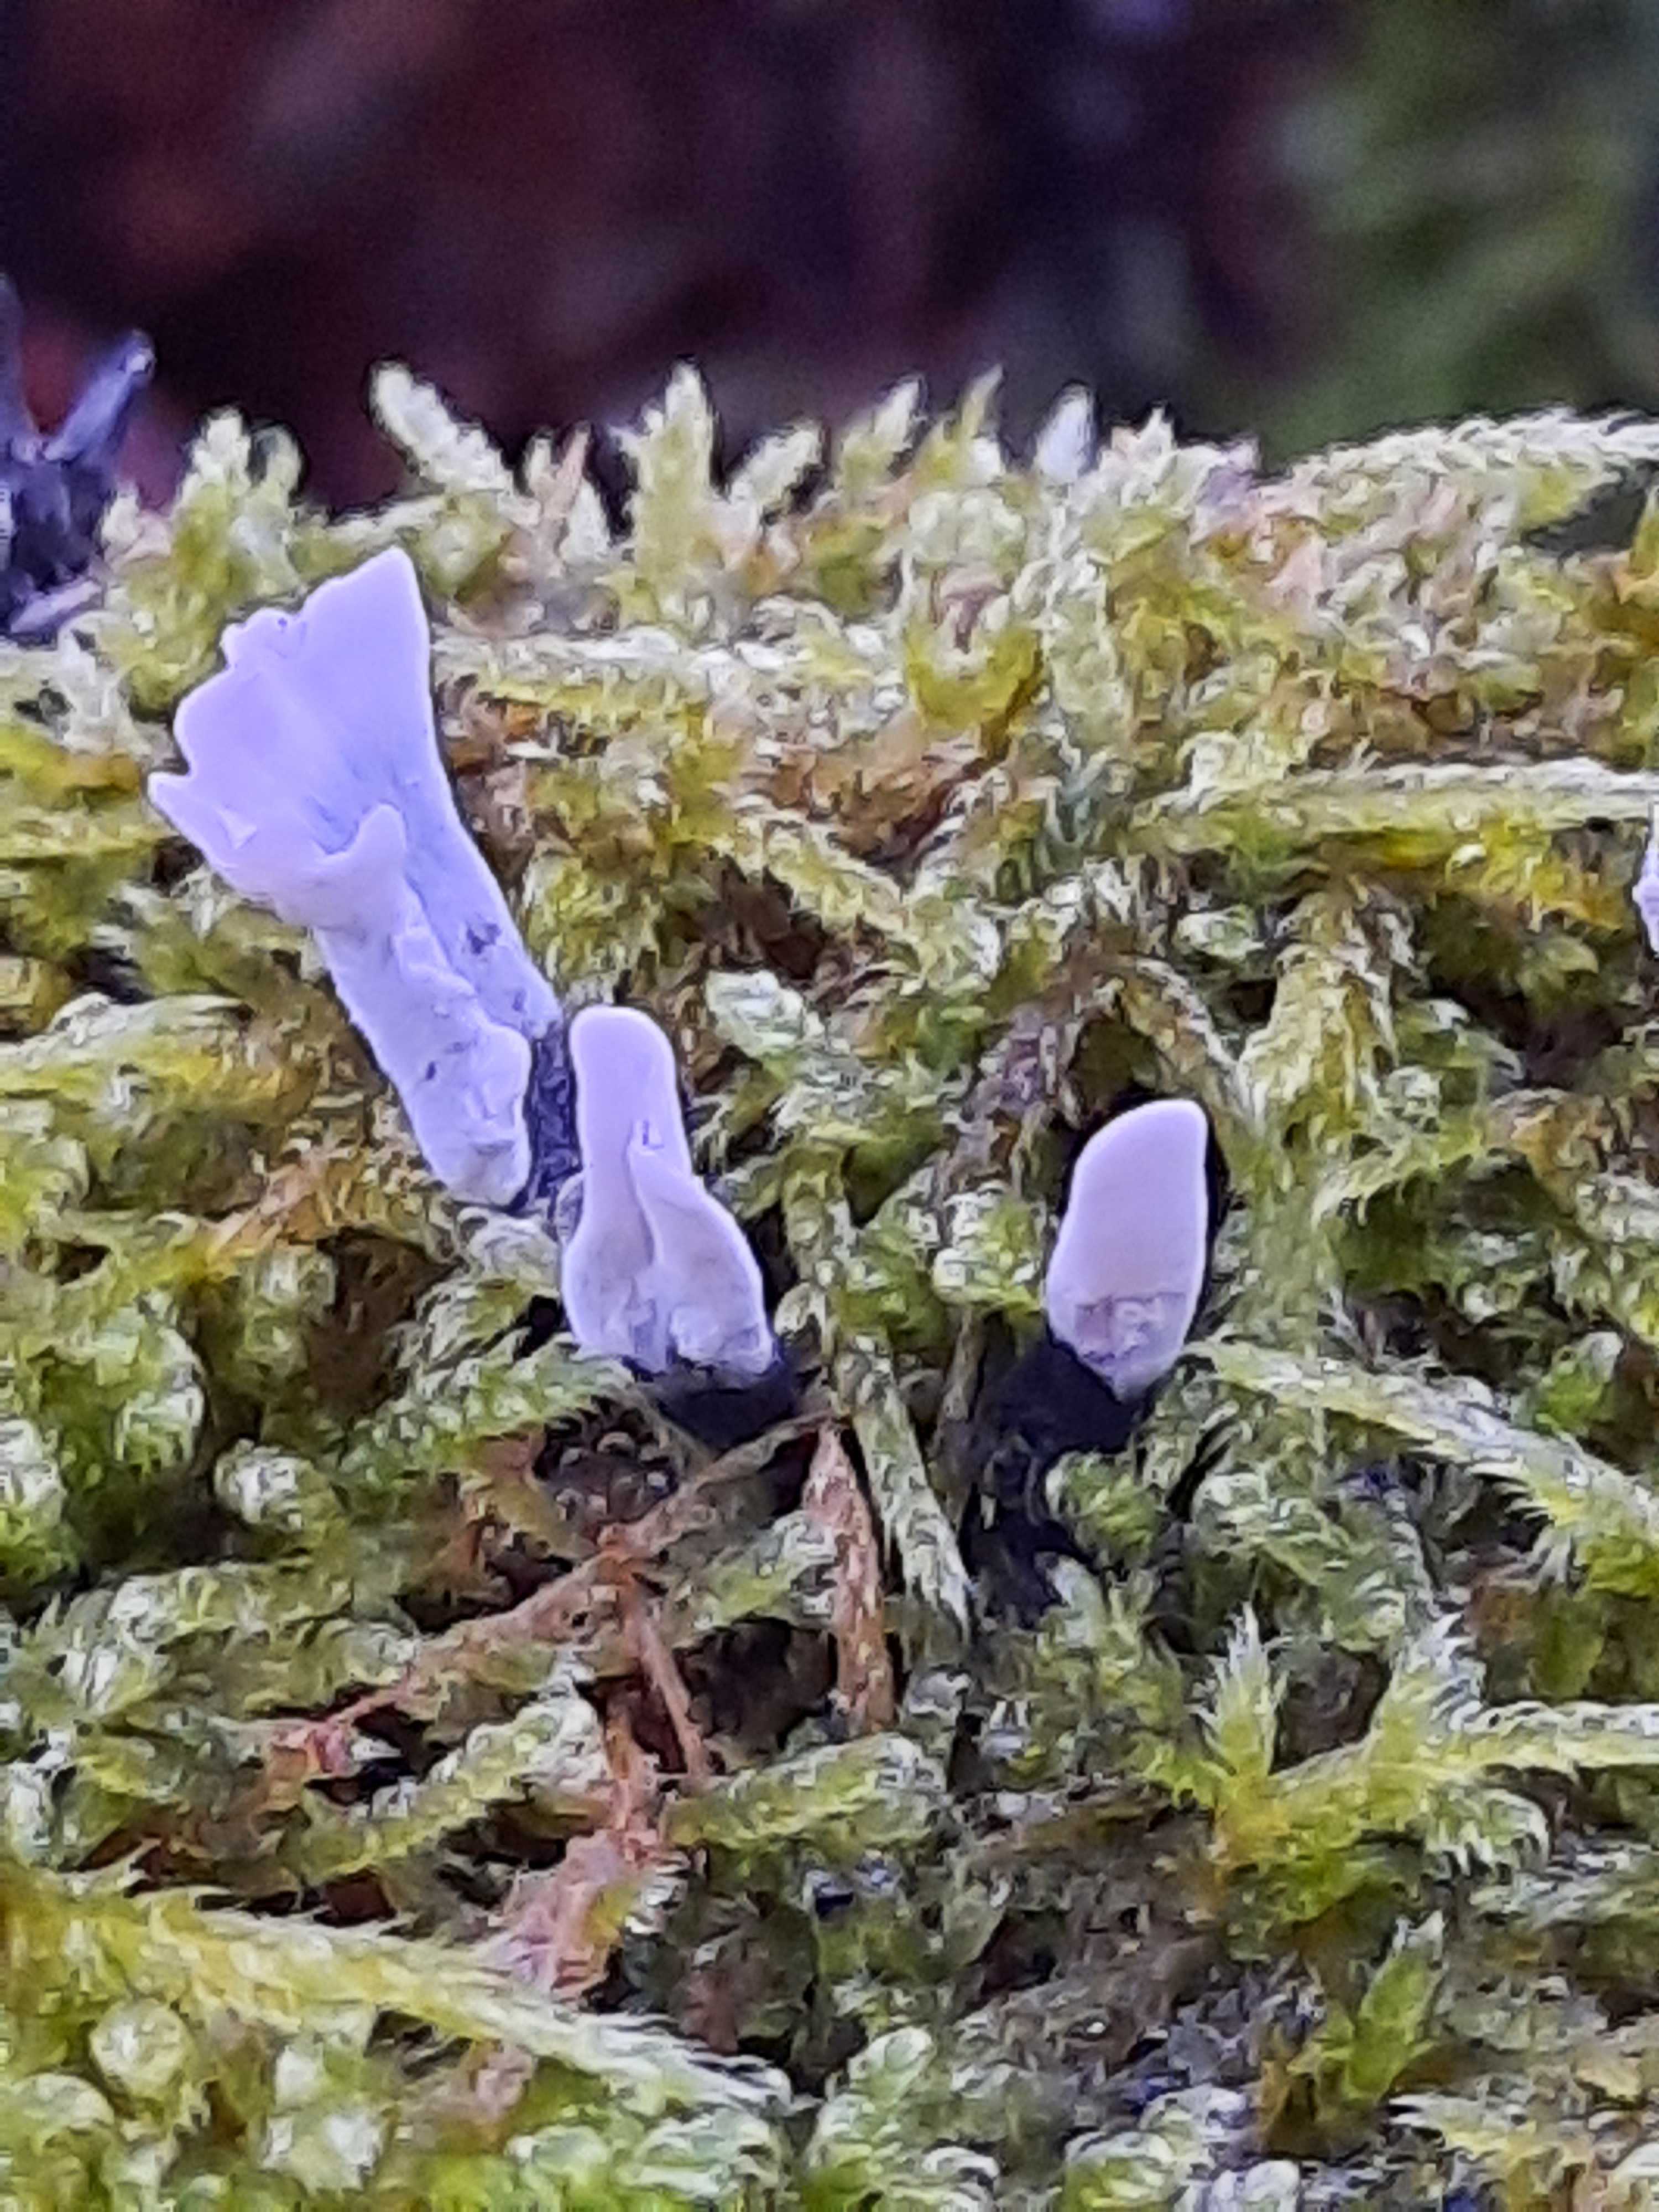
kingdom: Fungi
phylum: Ascomycota
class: Sordariomycetes
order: Xylariales
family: Xylariaceae
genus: Xylaria
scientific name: Xylaria hypoxylon
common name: grenet stødsvamp
